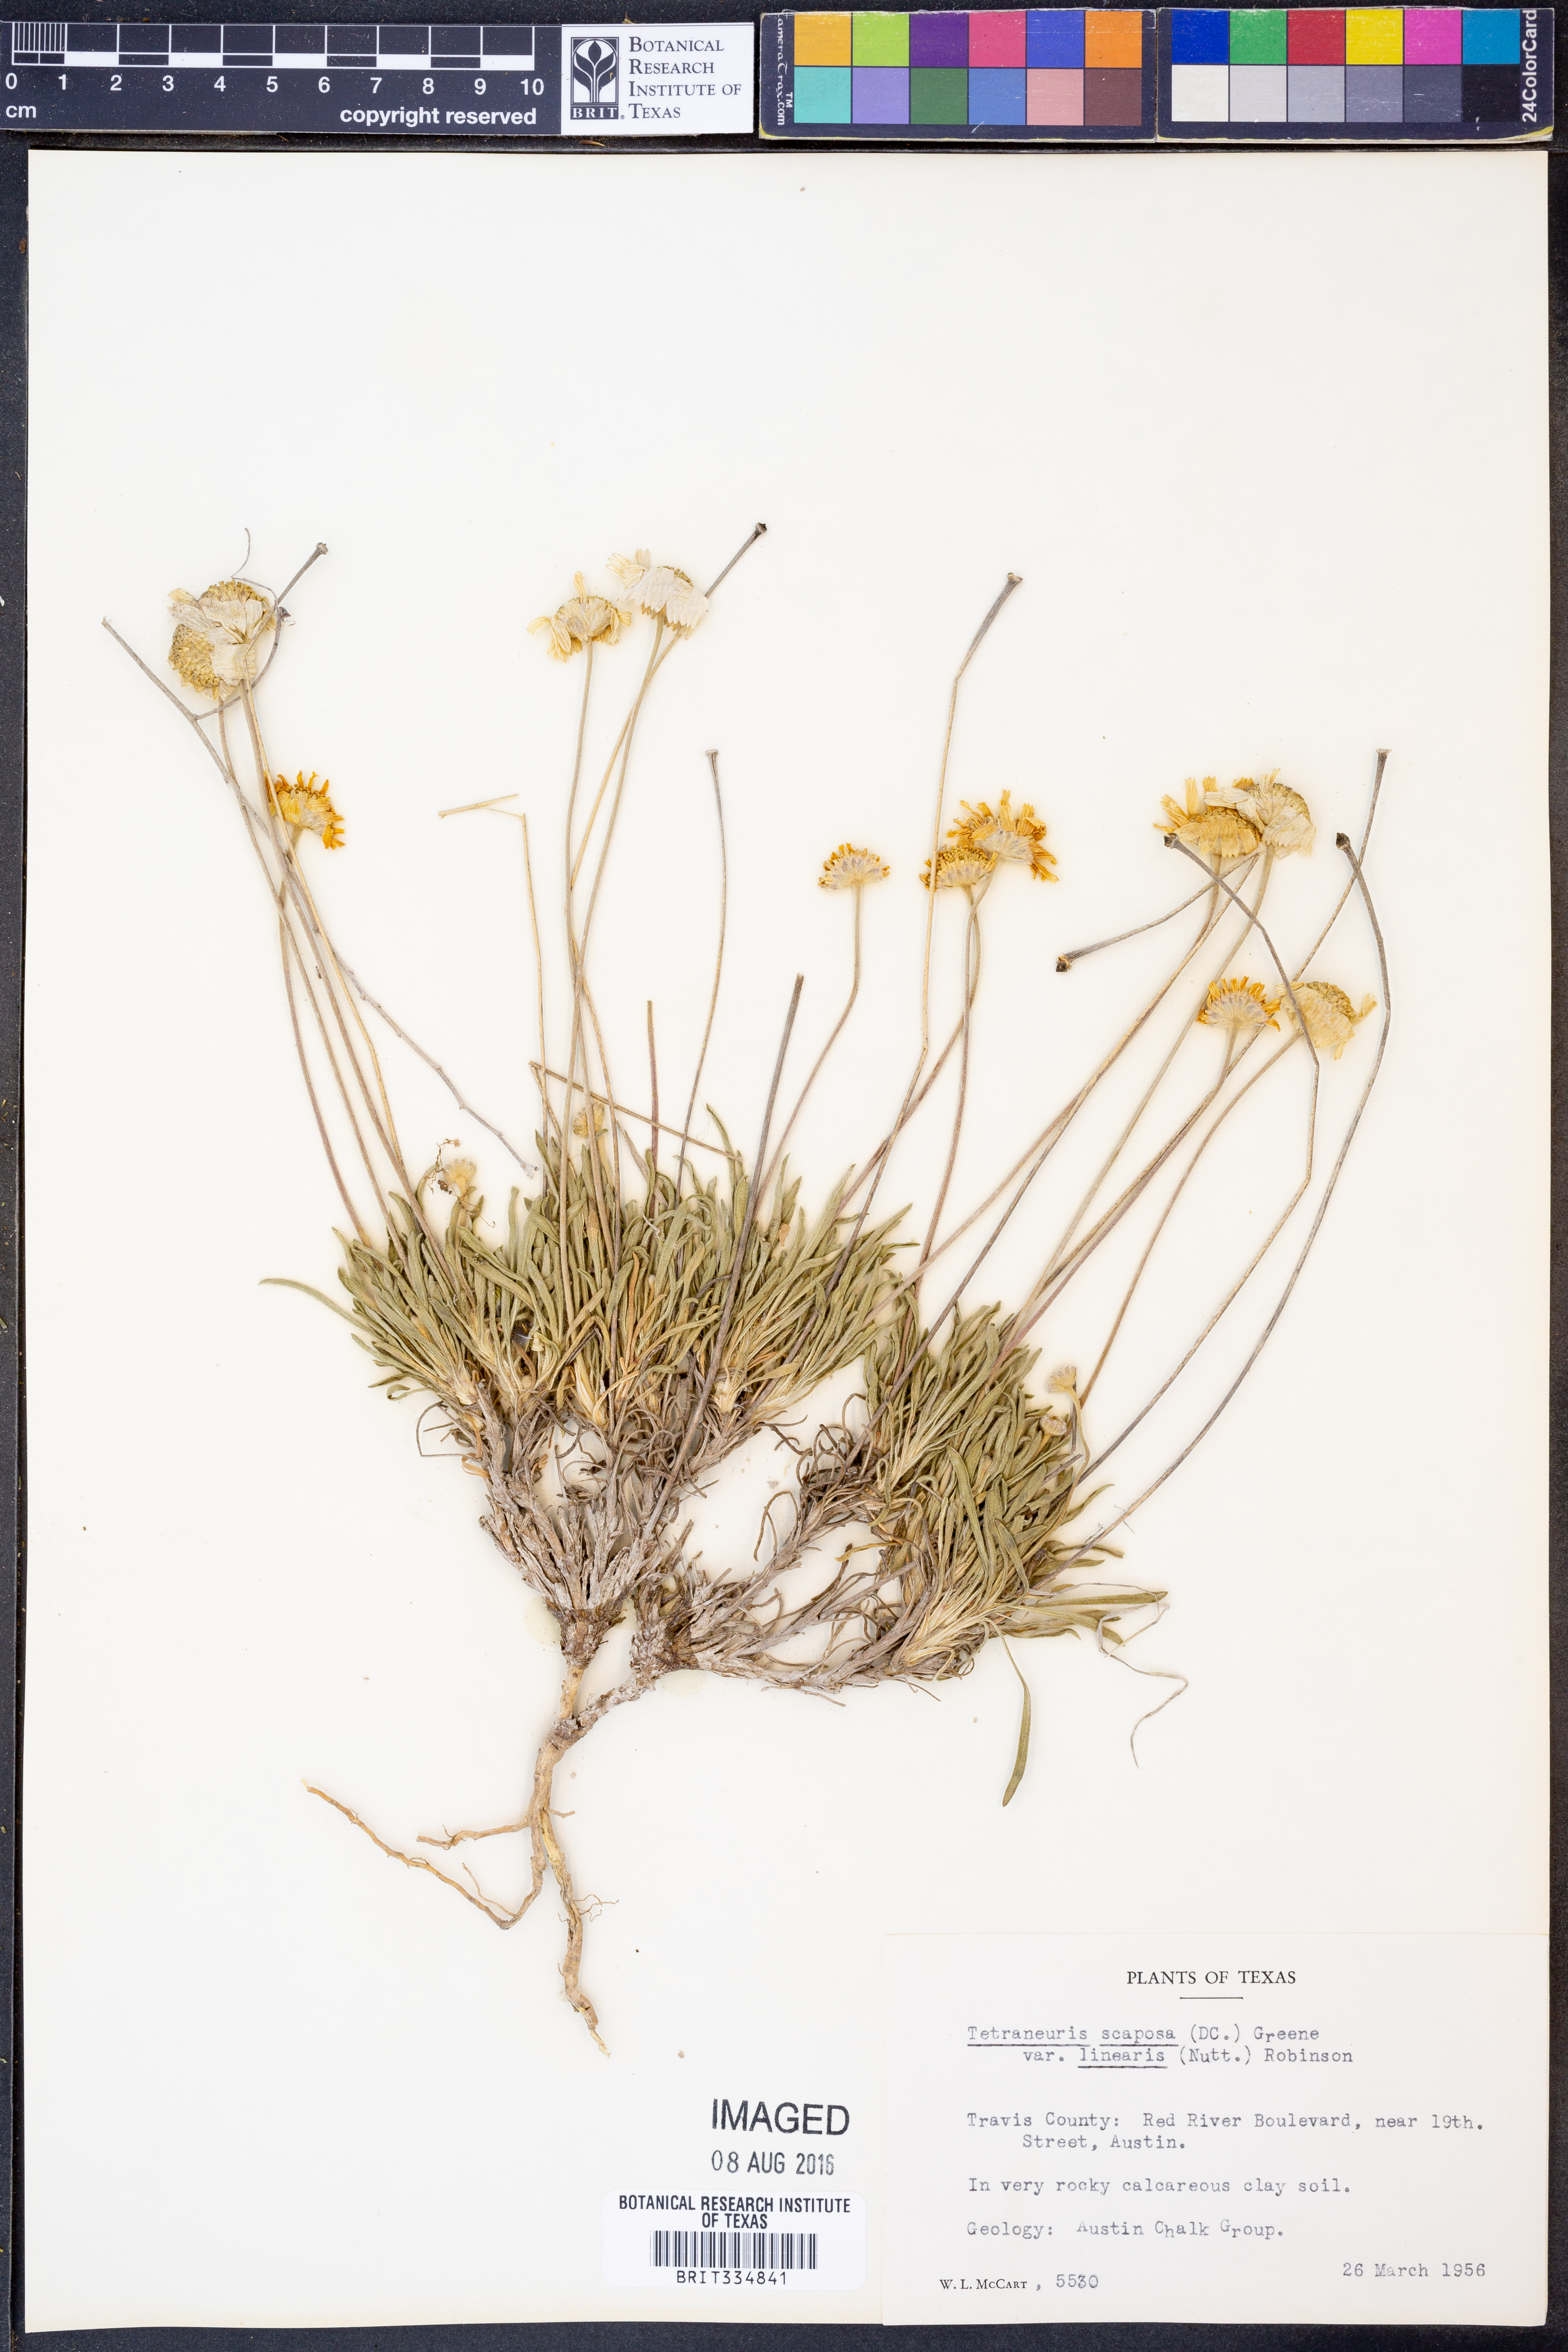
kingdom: Plantae
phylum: Tracheophyta
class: Magnoliopsida
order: Asterales
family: Asteraceae
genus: Tetraneuris
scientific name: Tetraneuris scaposa
